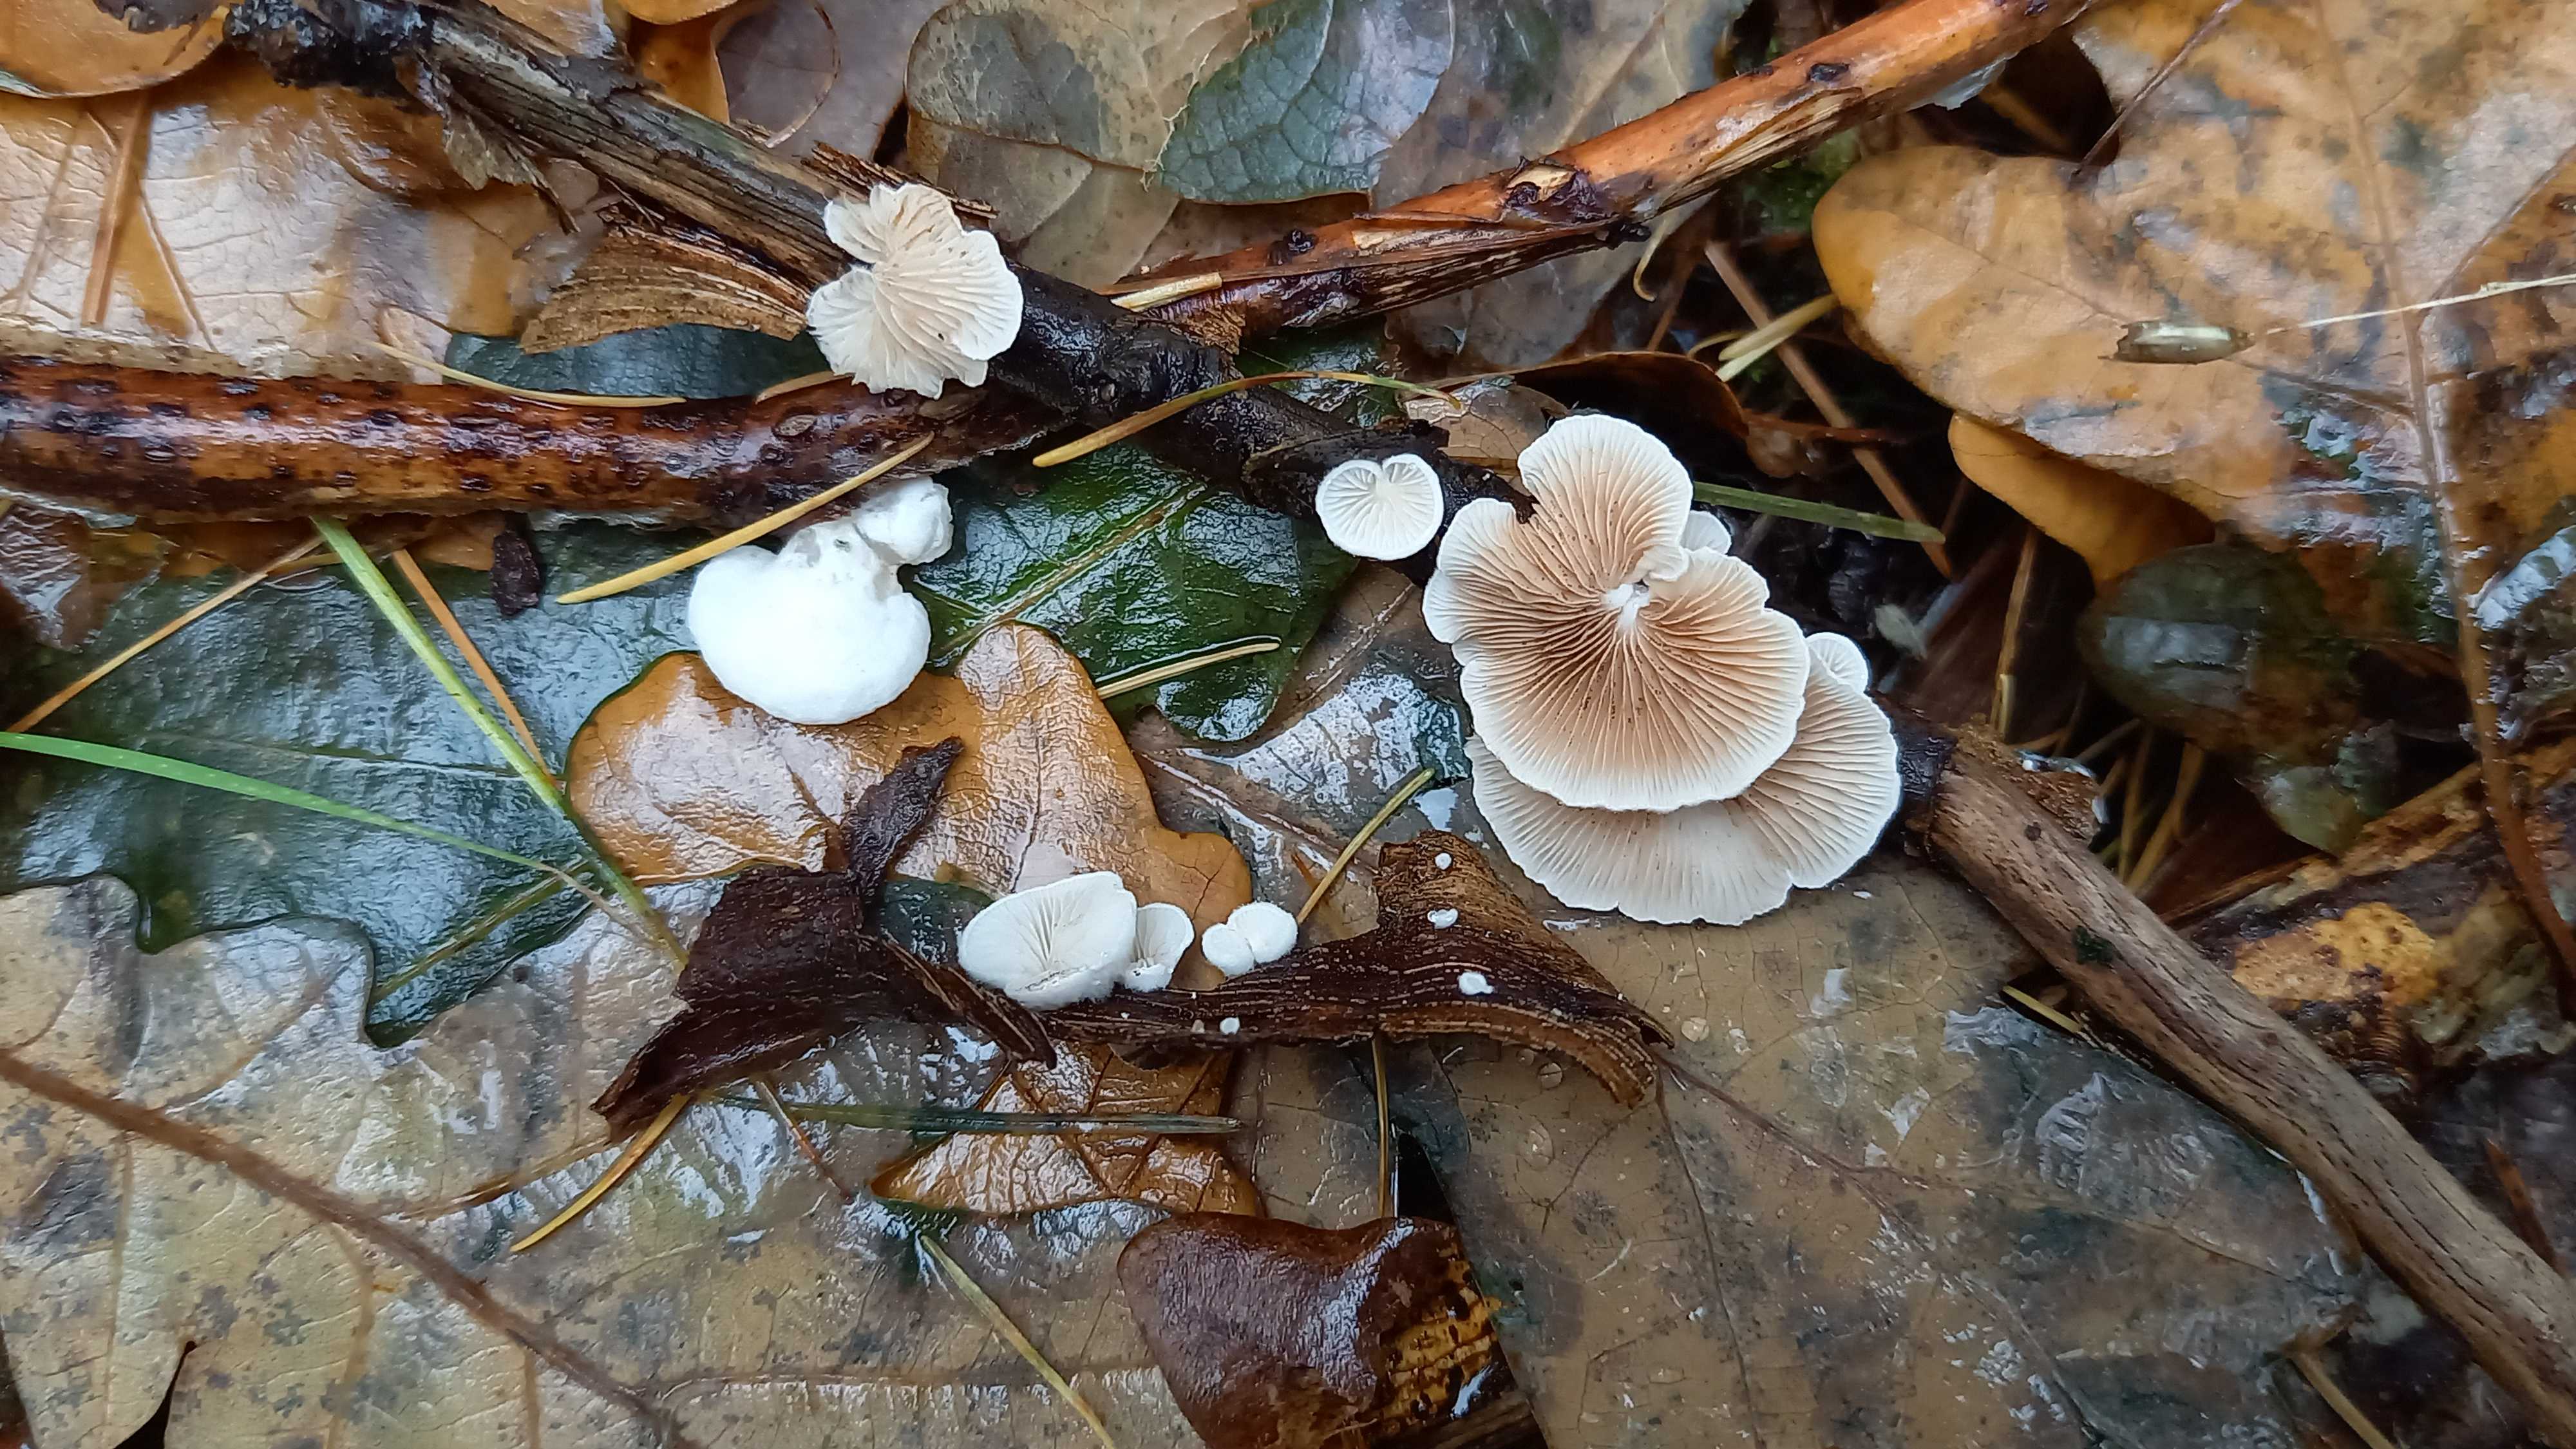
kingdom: Fungi
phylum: Basidiomycota
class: Agaricomycetes
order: Agaricales
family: Crepidotaceae
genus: Crepidotus
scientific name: Crepidotus
